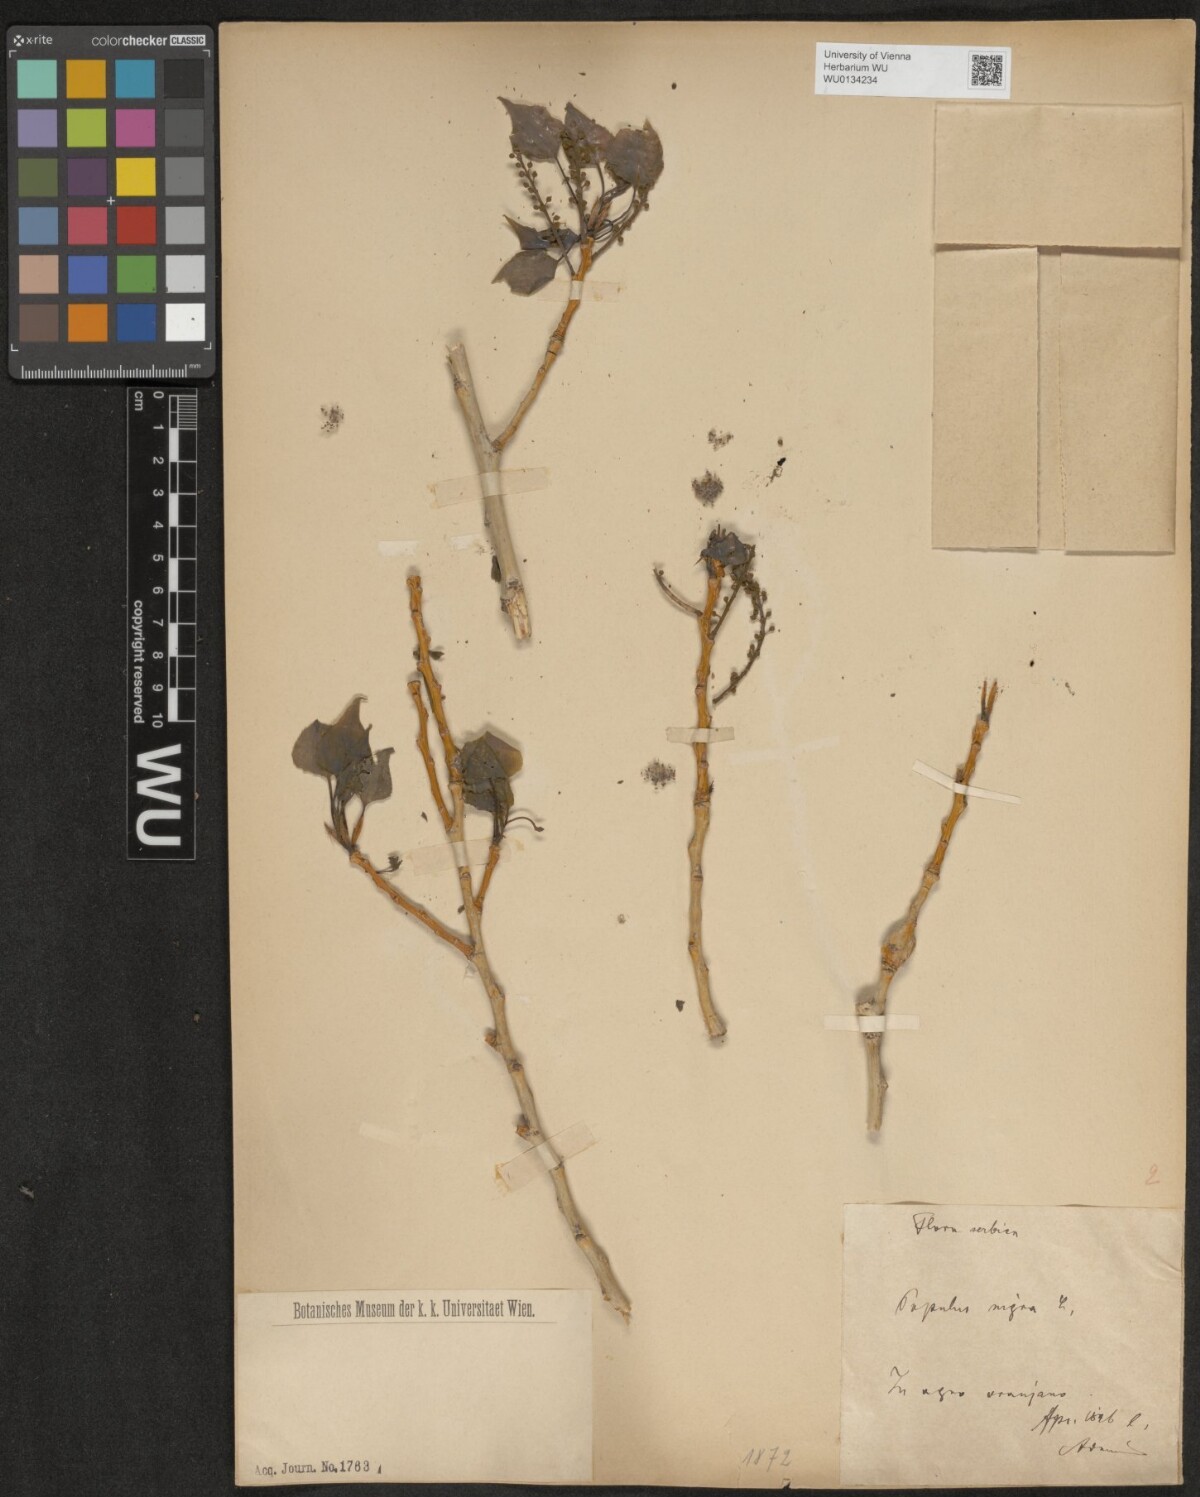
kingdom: Plantae
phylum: Tracheophyta
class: Magnoliopsida
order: Malpighiales
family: Salicaceae
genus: Populus
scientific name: Populus nigra
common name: Black poplar
